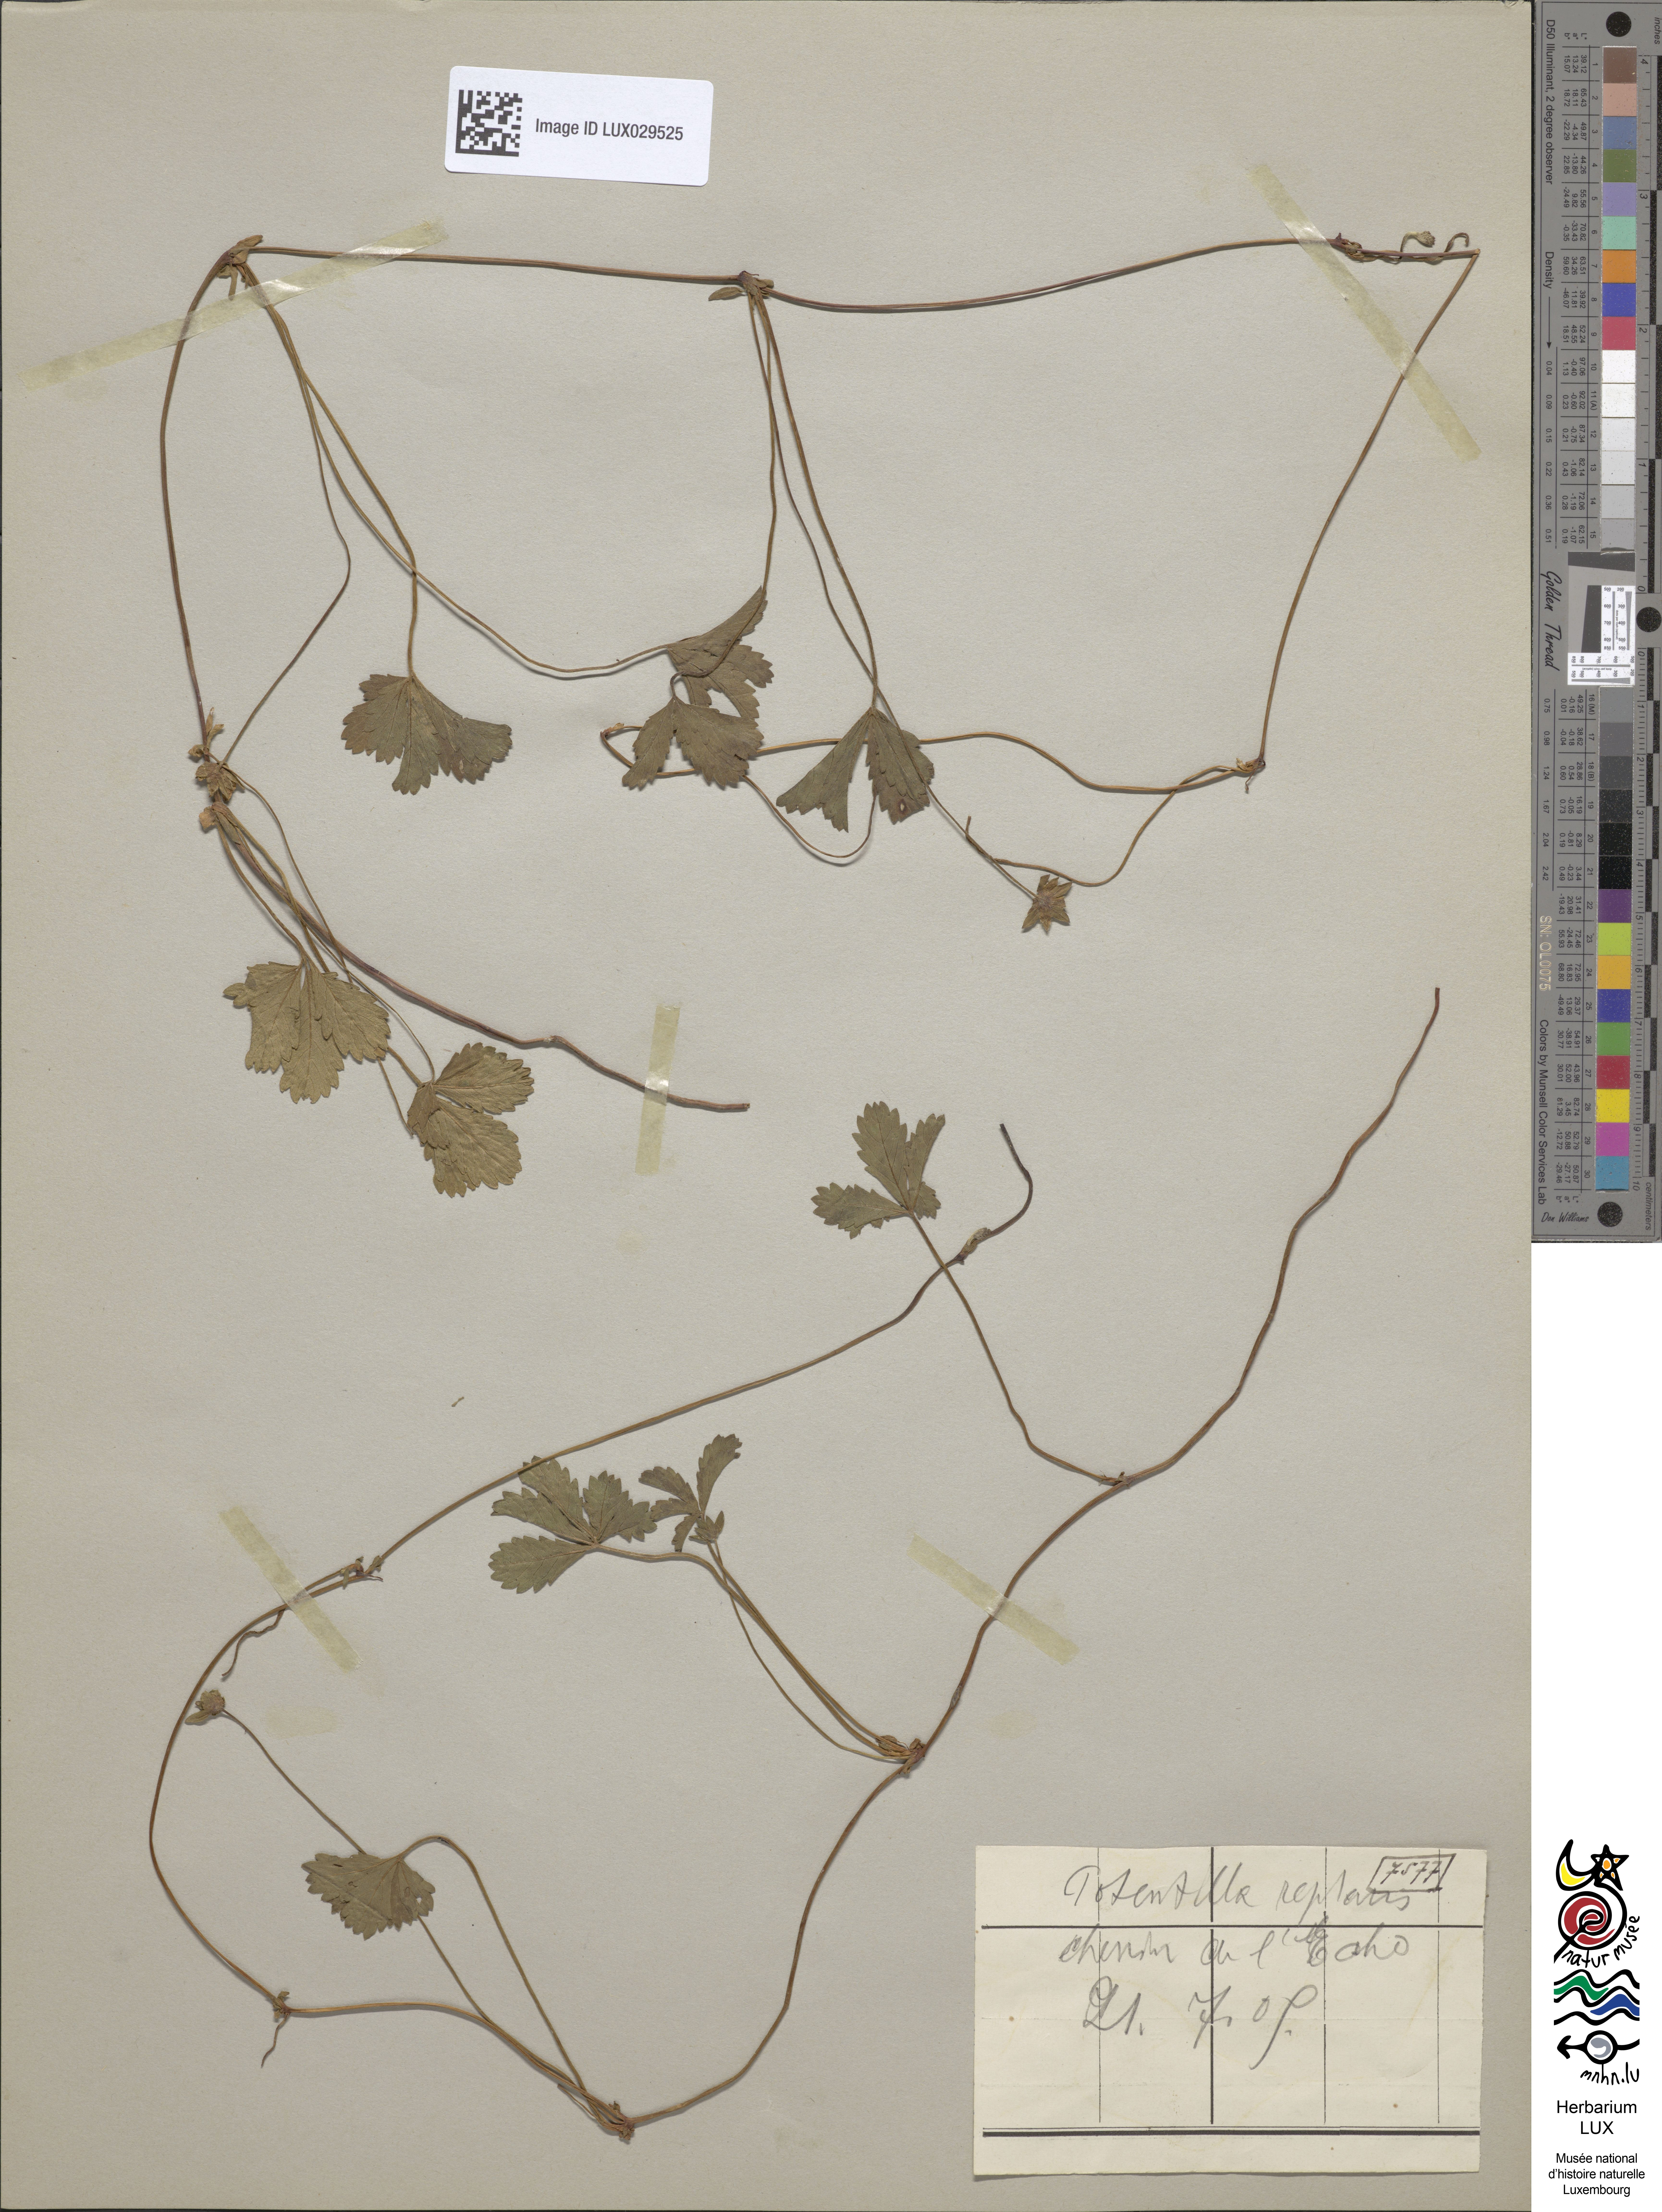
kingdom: Plantae
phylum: Tracheophyta
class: Magnoliopsida
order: Rosales
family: Rosaceae
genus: Potentilla
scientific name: Potentilla reptans
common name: Creeping cinquefoil
